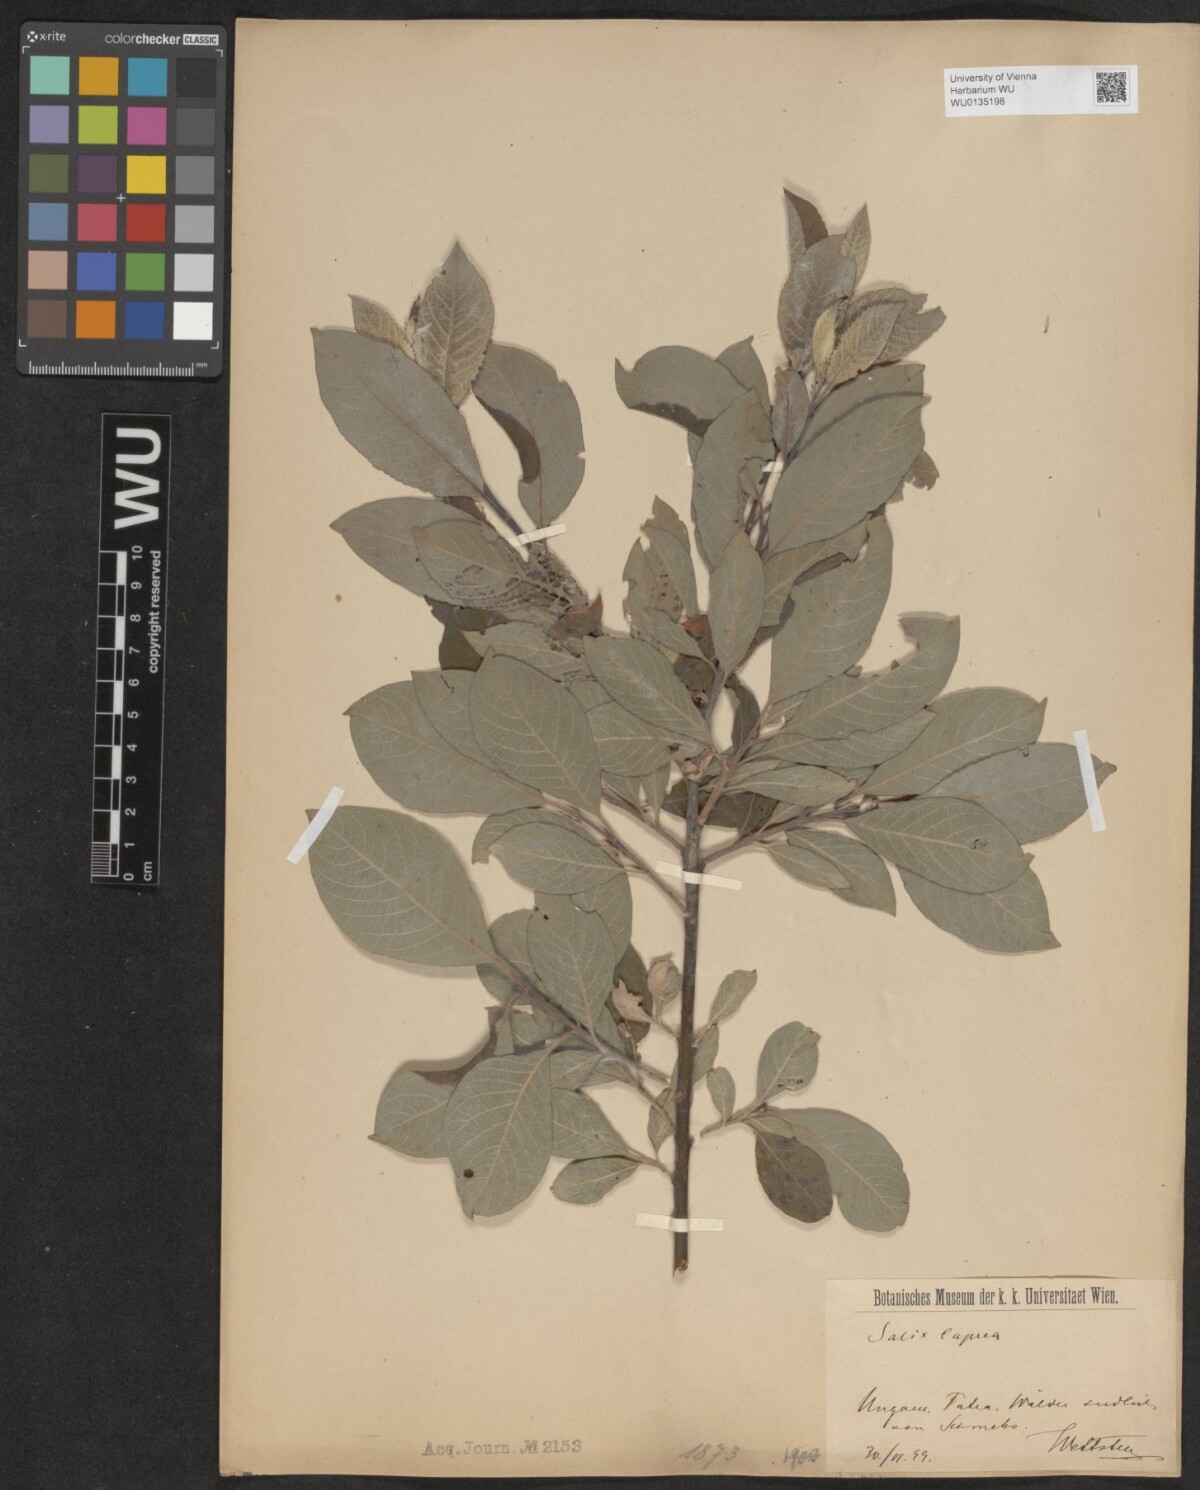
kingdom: Plantae
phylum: Tracheophyta
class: Magnoliopsida
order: Malpighiales
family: Salicaceae
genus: Salix
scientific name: Salix caprea
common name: Goat willow
